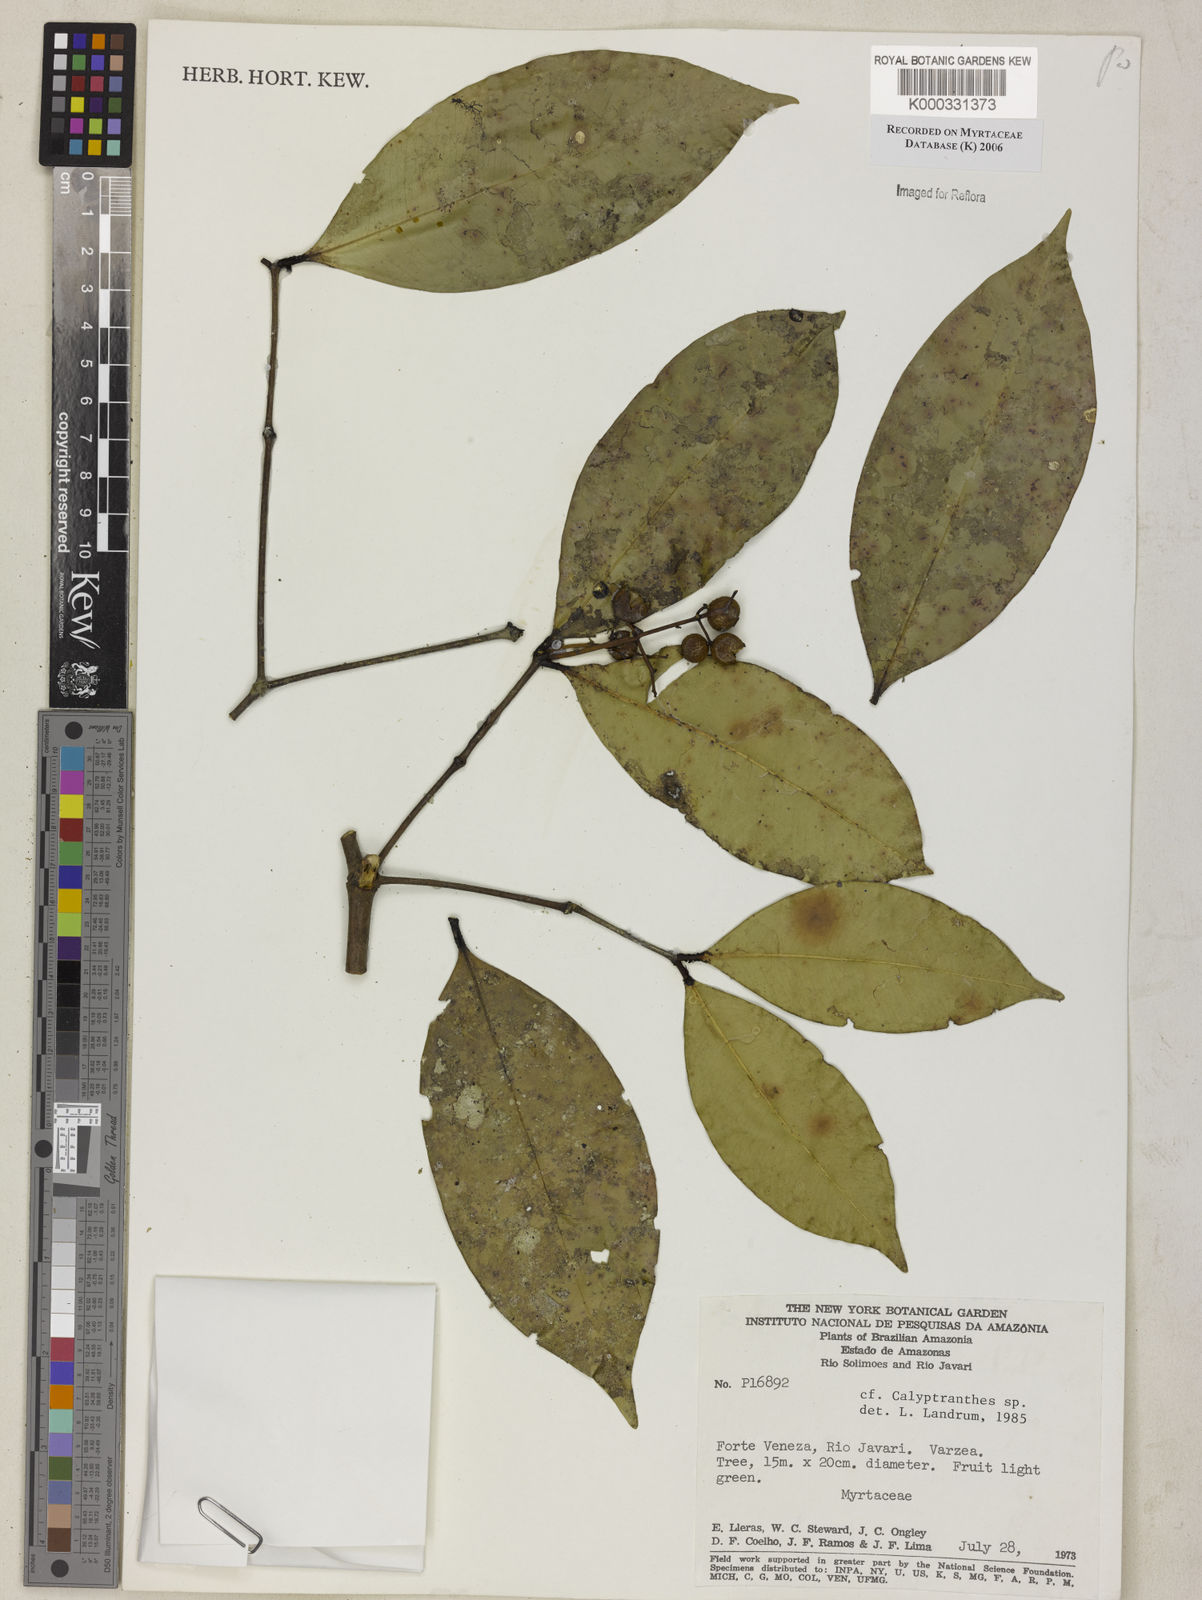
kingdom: Plantae
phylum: Tracheophyta
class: Magnoliopsida
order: Myrtales
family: Myrtaceae
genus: Calyptranthes
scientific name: Calyptranthes
